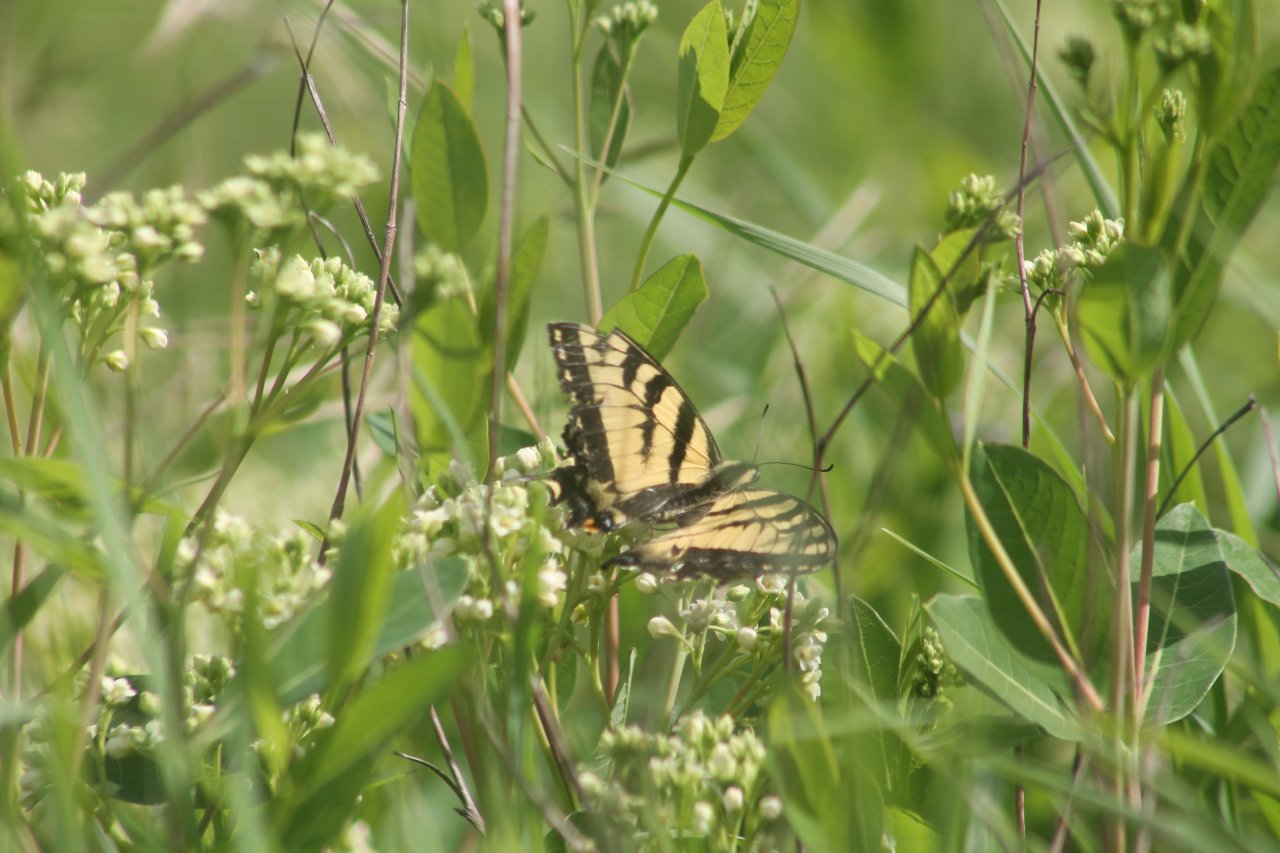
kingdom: Animalia
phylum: Arthropoda
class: Insecta
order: Lepidoptera
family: Papilionidae
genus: Pterourus
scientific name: Pterourus canadensis
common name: Canadian Tiger Swallowtail
